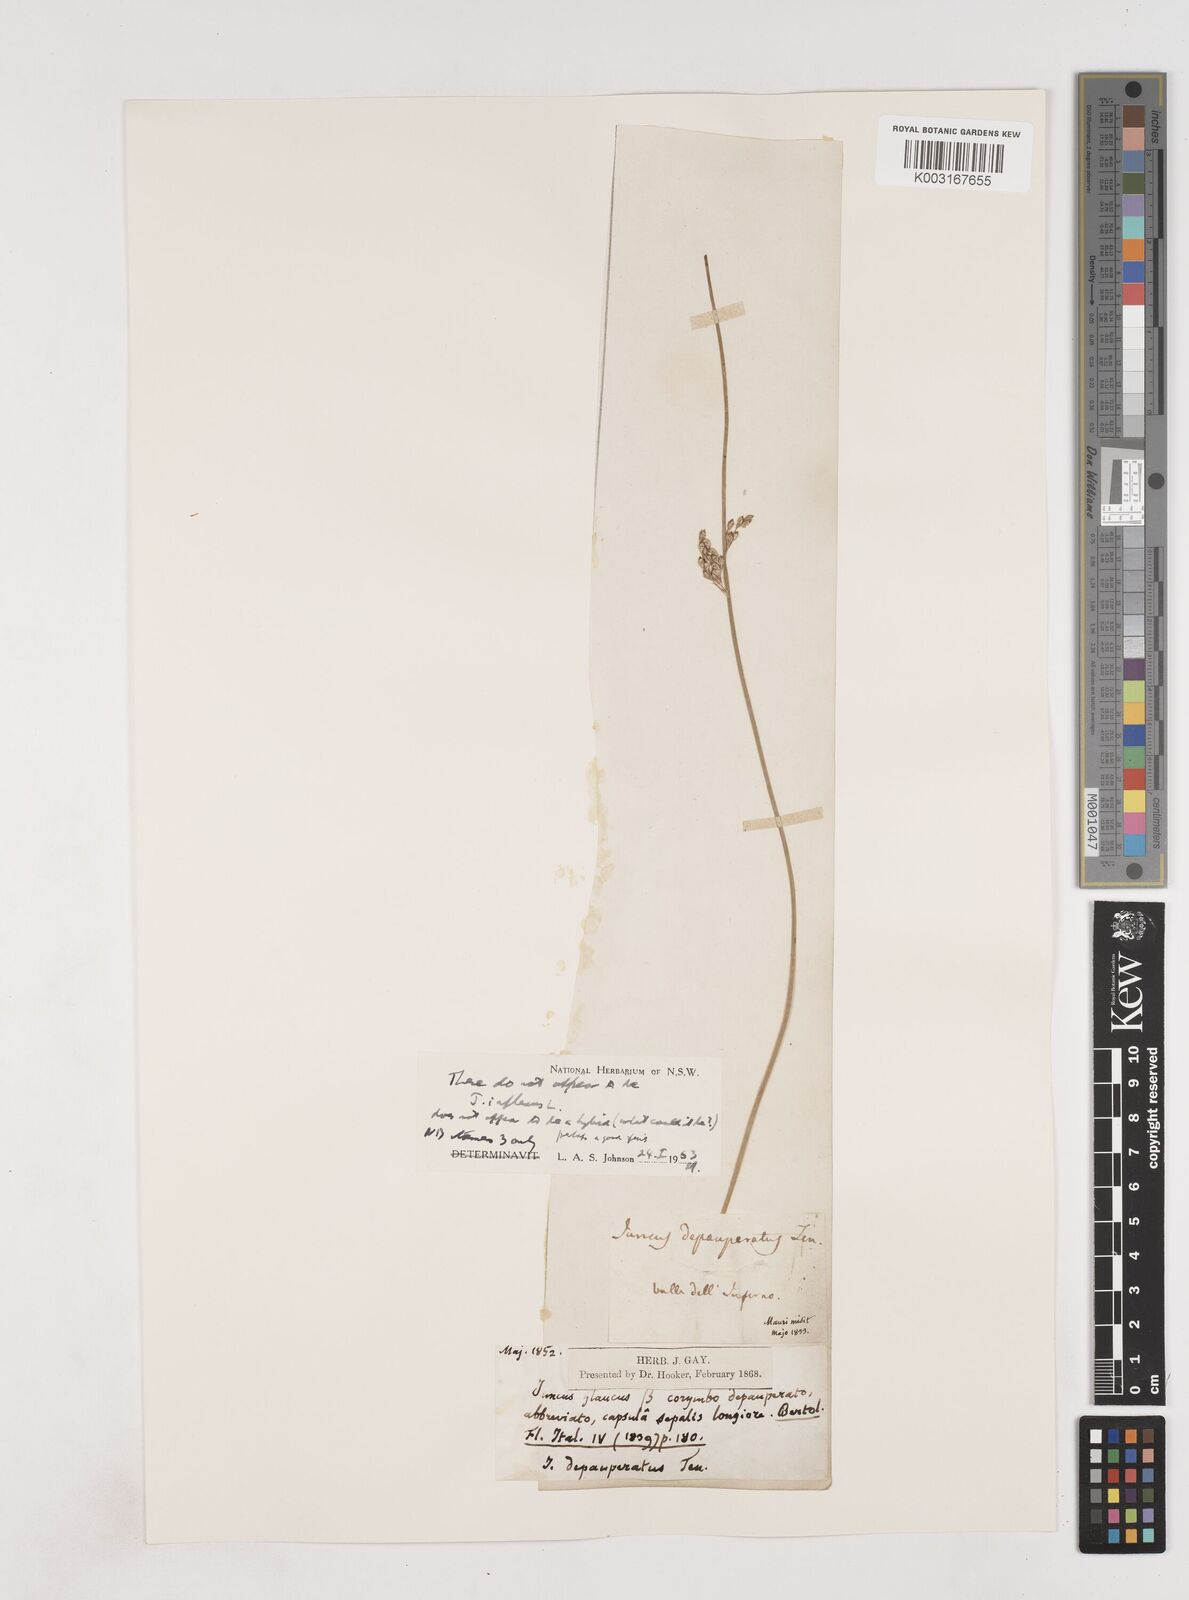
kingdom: Plantae
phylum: Tracheophyta
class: Liliopsida
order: Poales
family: Juncaceae
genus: Juncus
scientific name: Juncus depauperatus
